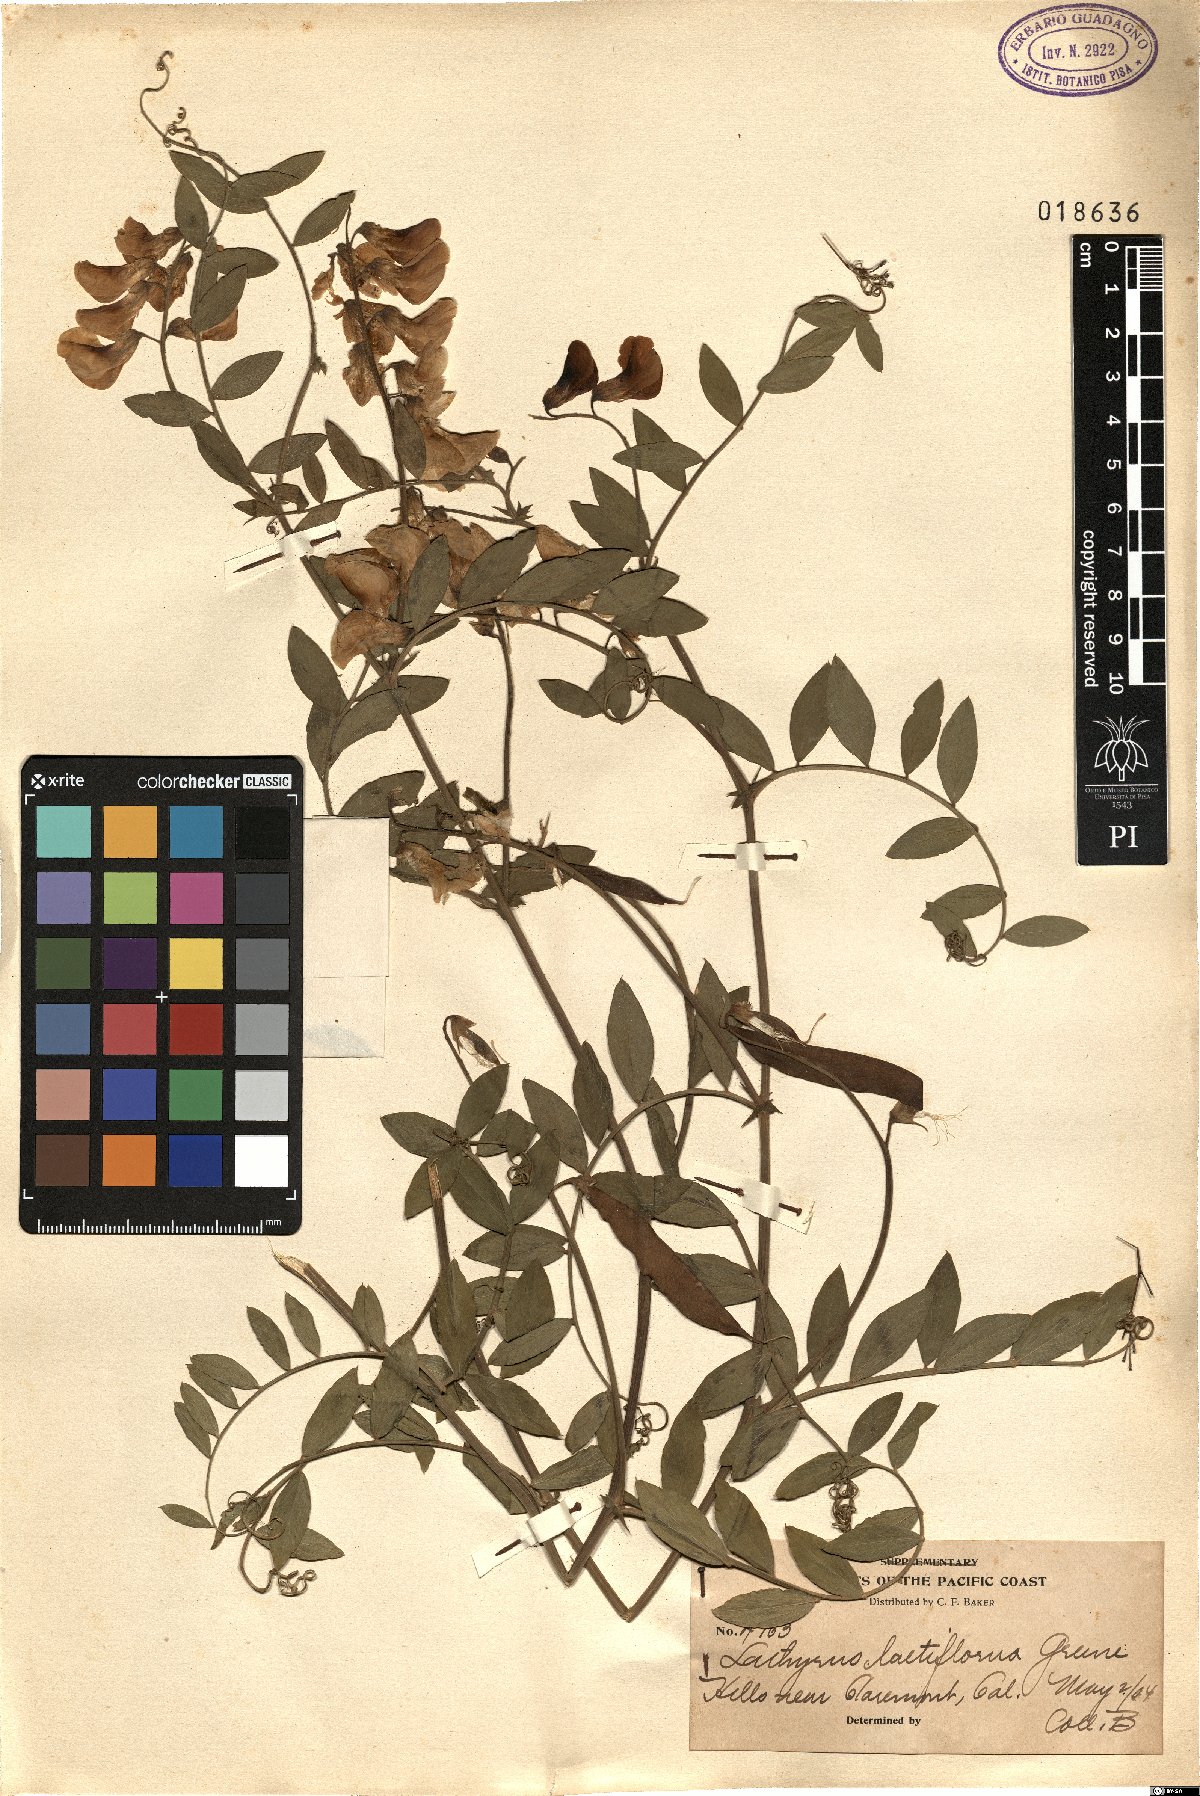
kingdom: Plantae
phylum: Tracheophyta
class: Magnoliopsida
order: Fabales
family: Fabaceae
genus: Lathyrus
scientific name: Lathyrus vestitus
